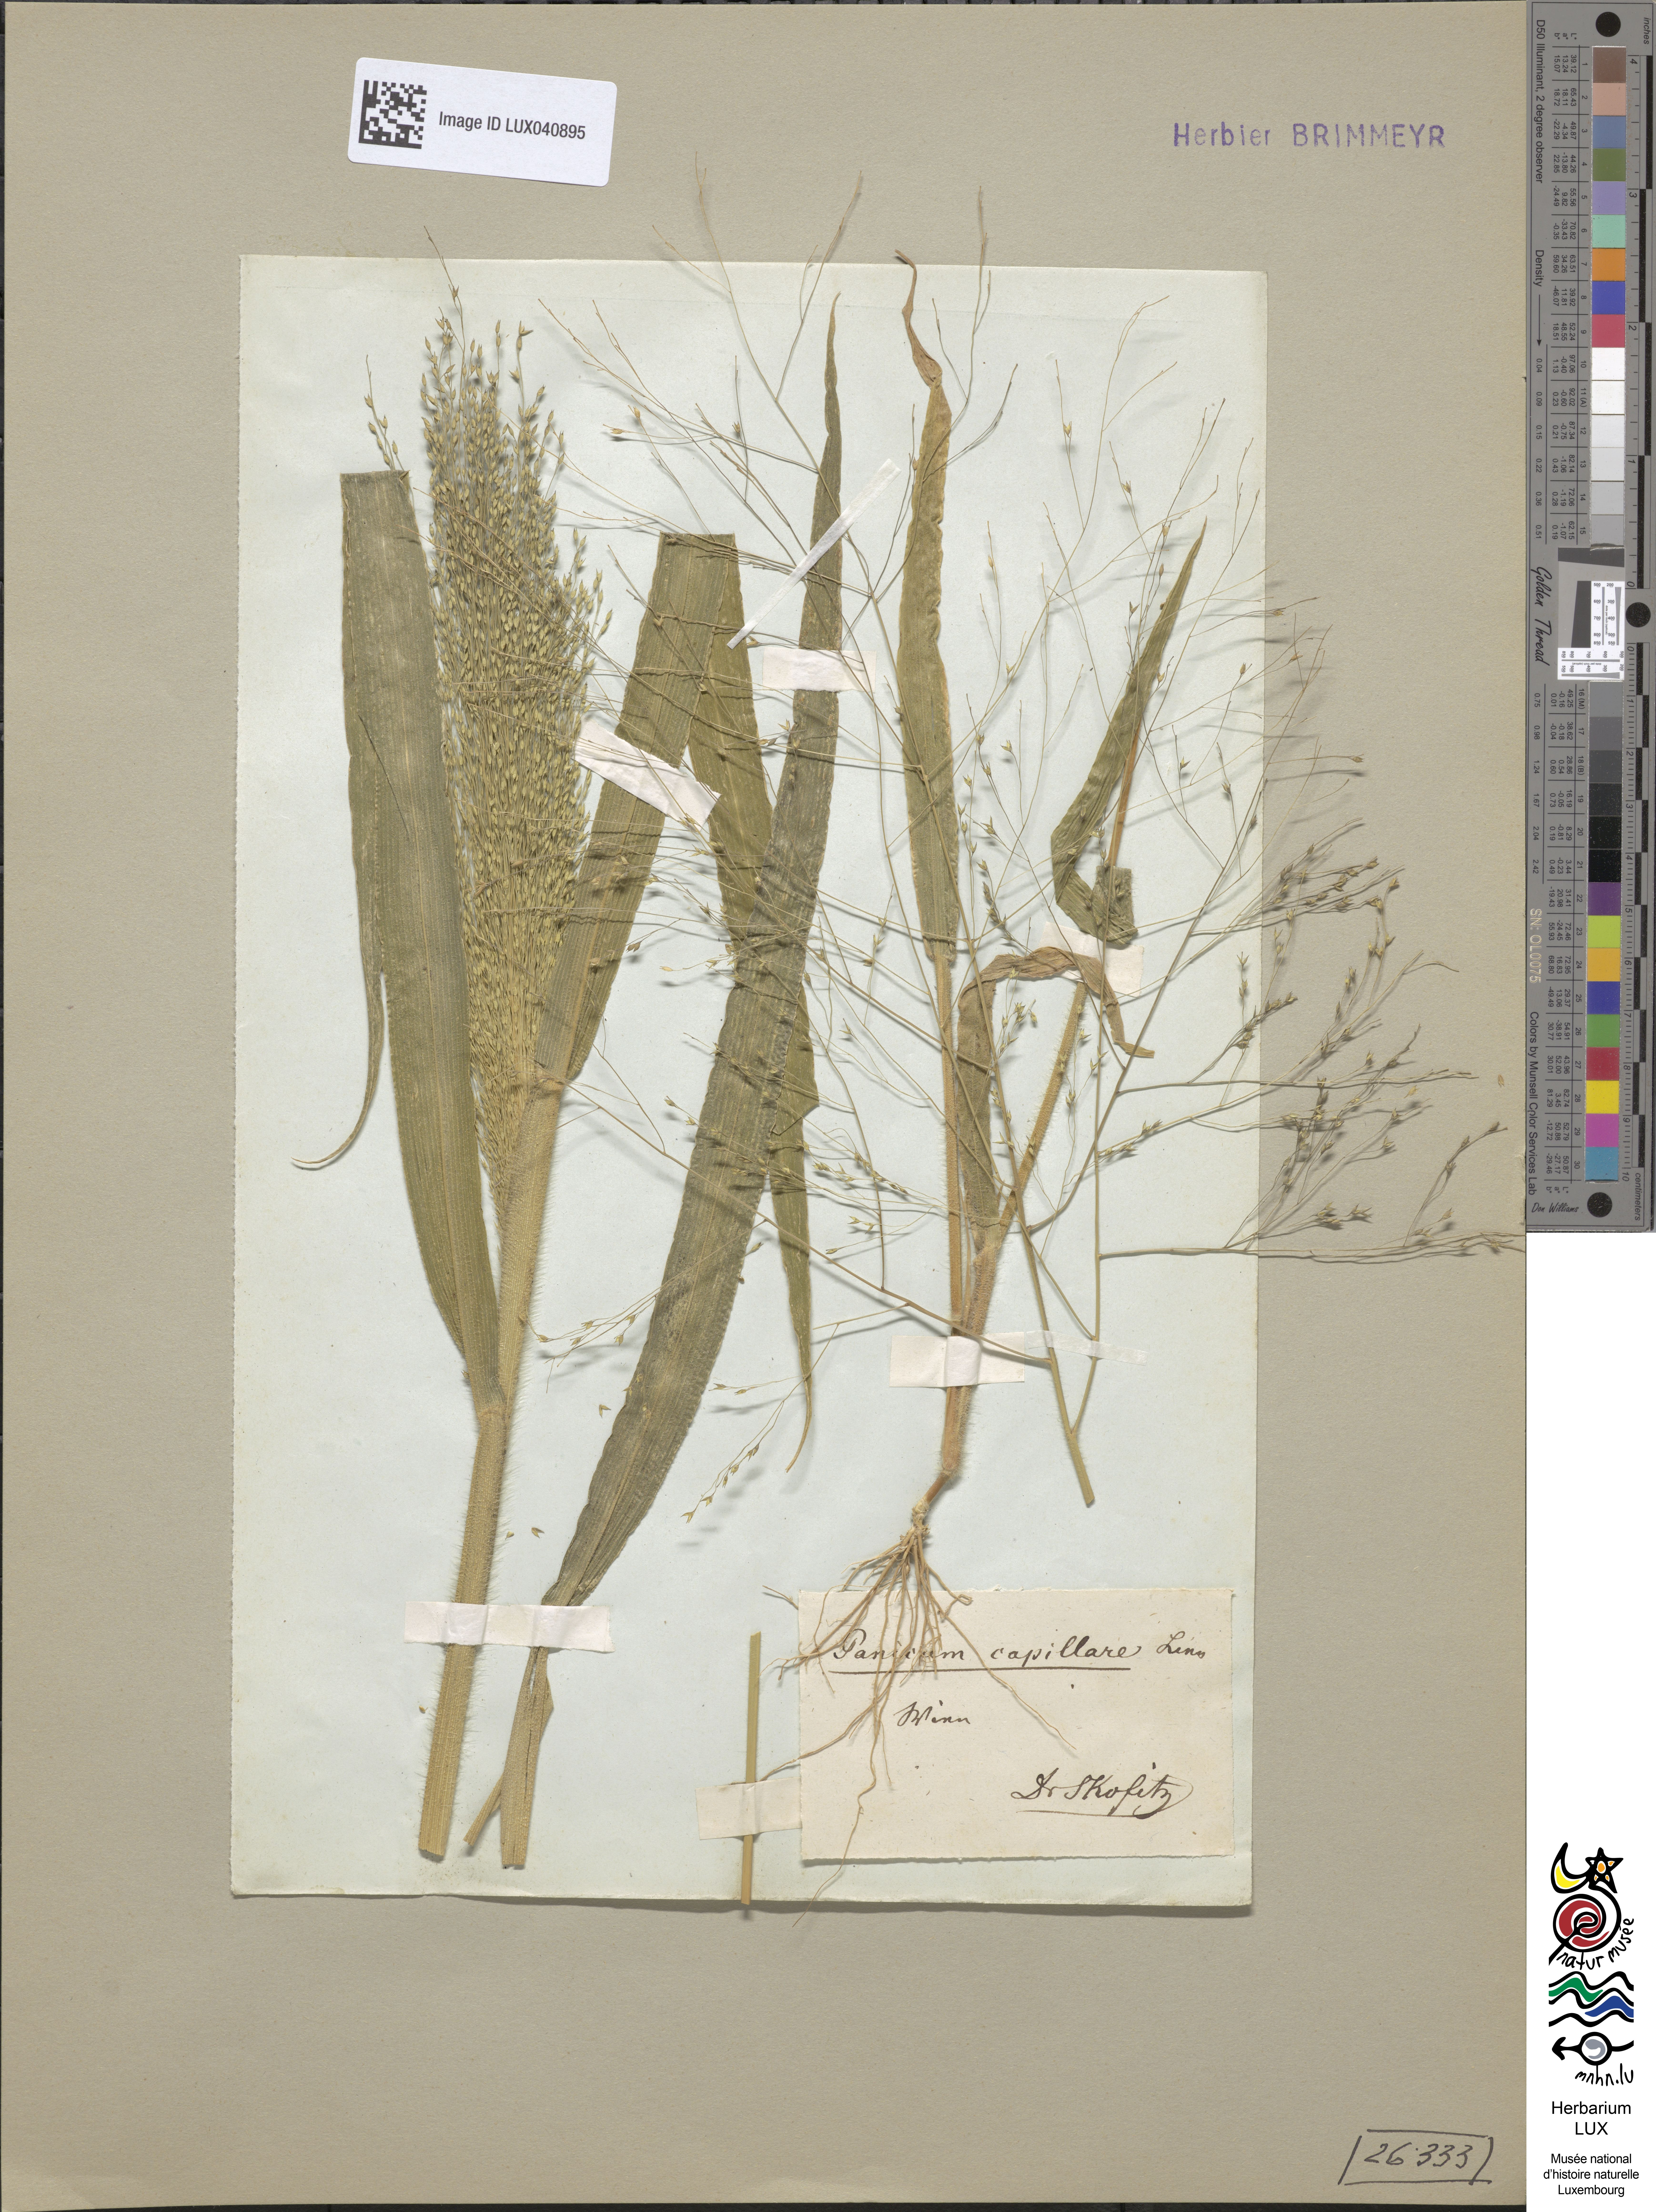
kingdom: Plantae
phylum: Tracheophyta
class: Liliopsida
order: Poales
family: Poaceae
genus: Panicum
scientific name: Panicum capillare
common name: Witch-grass
